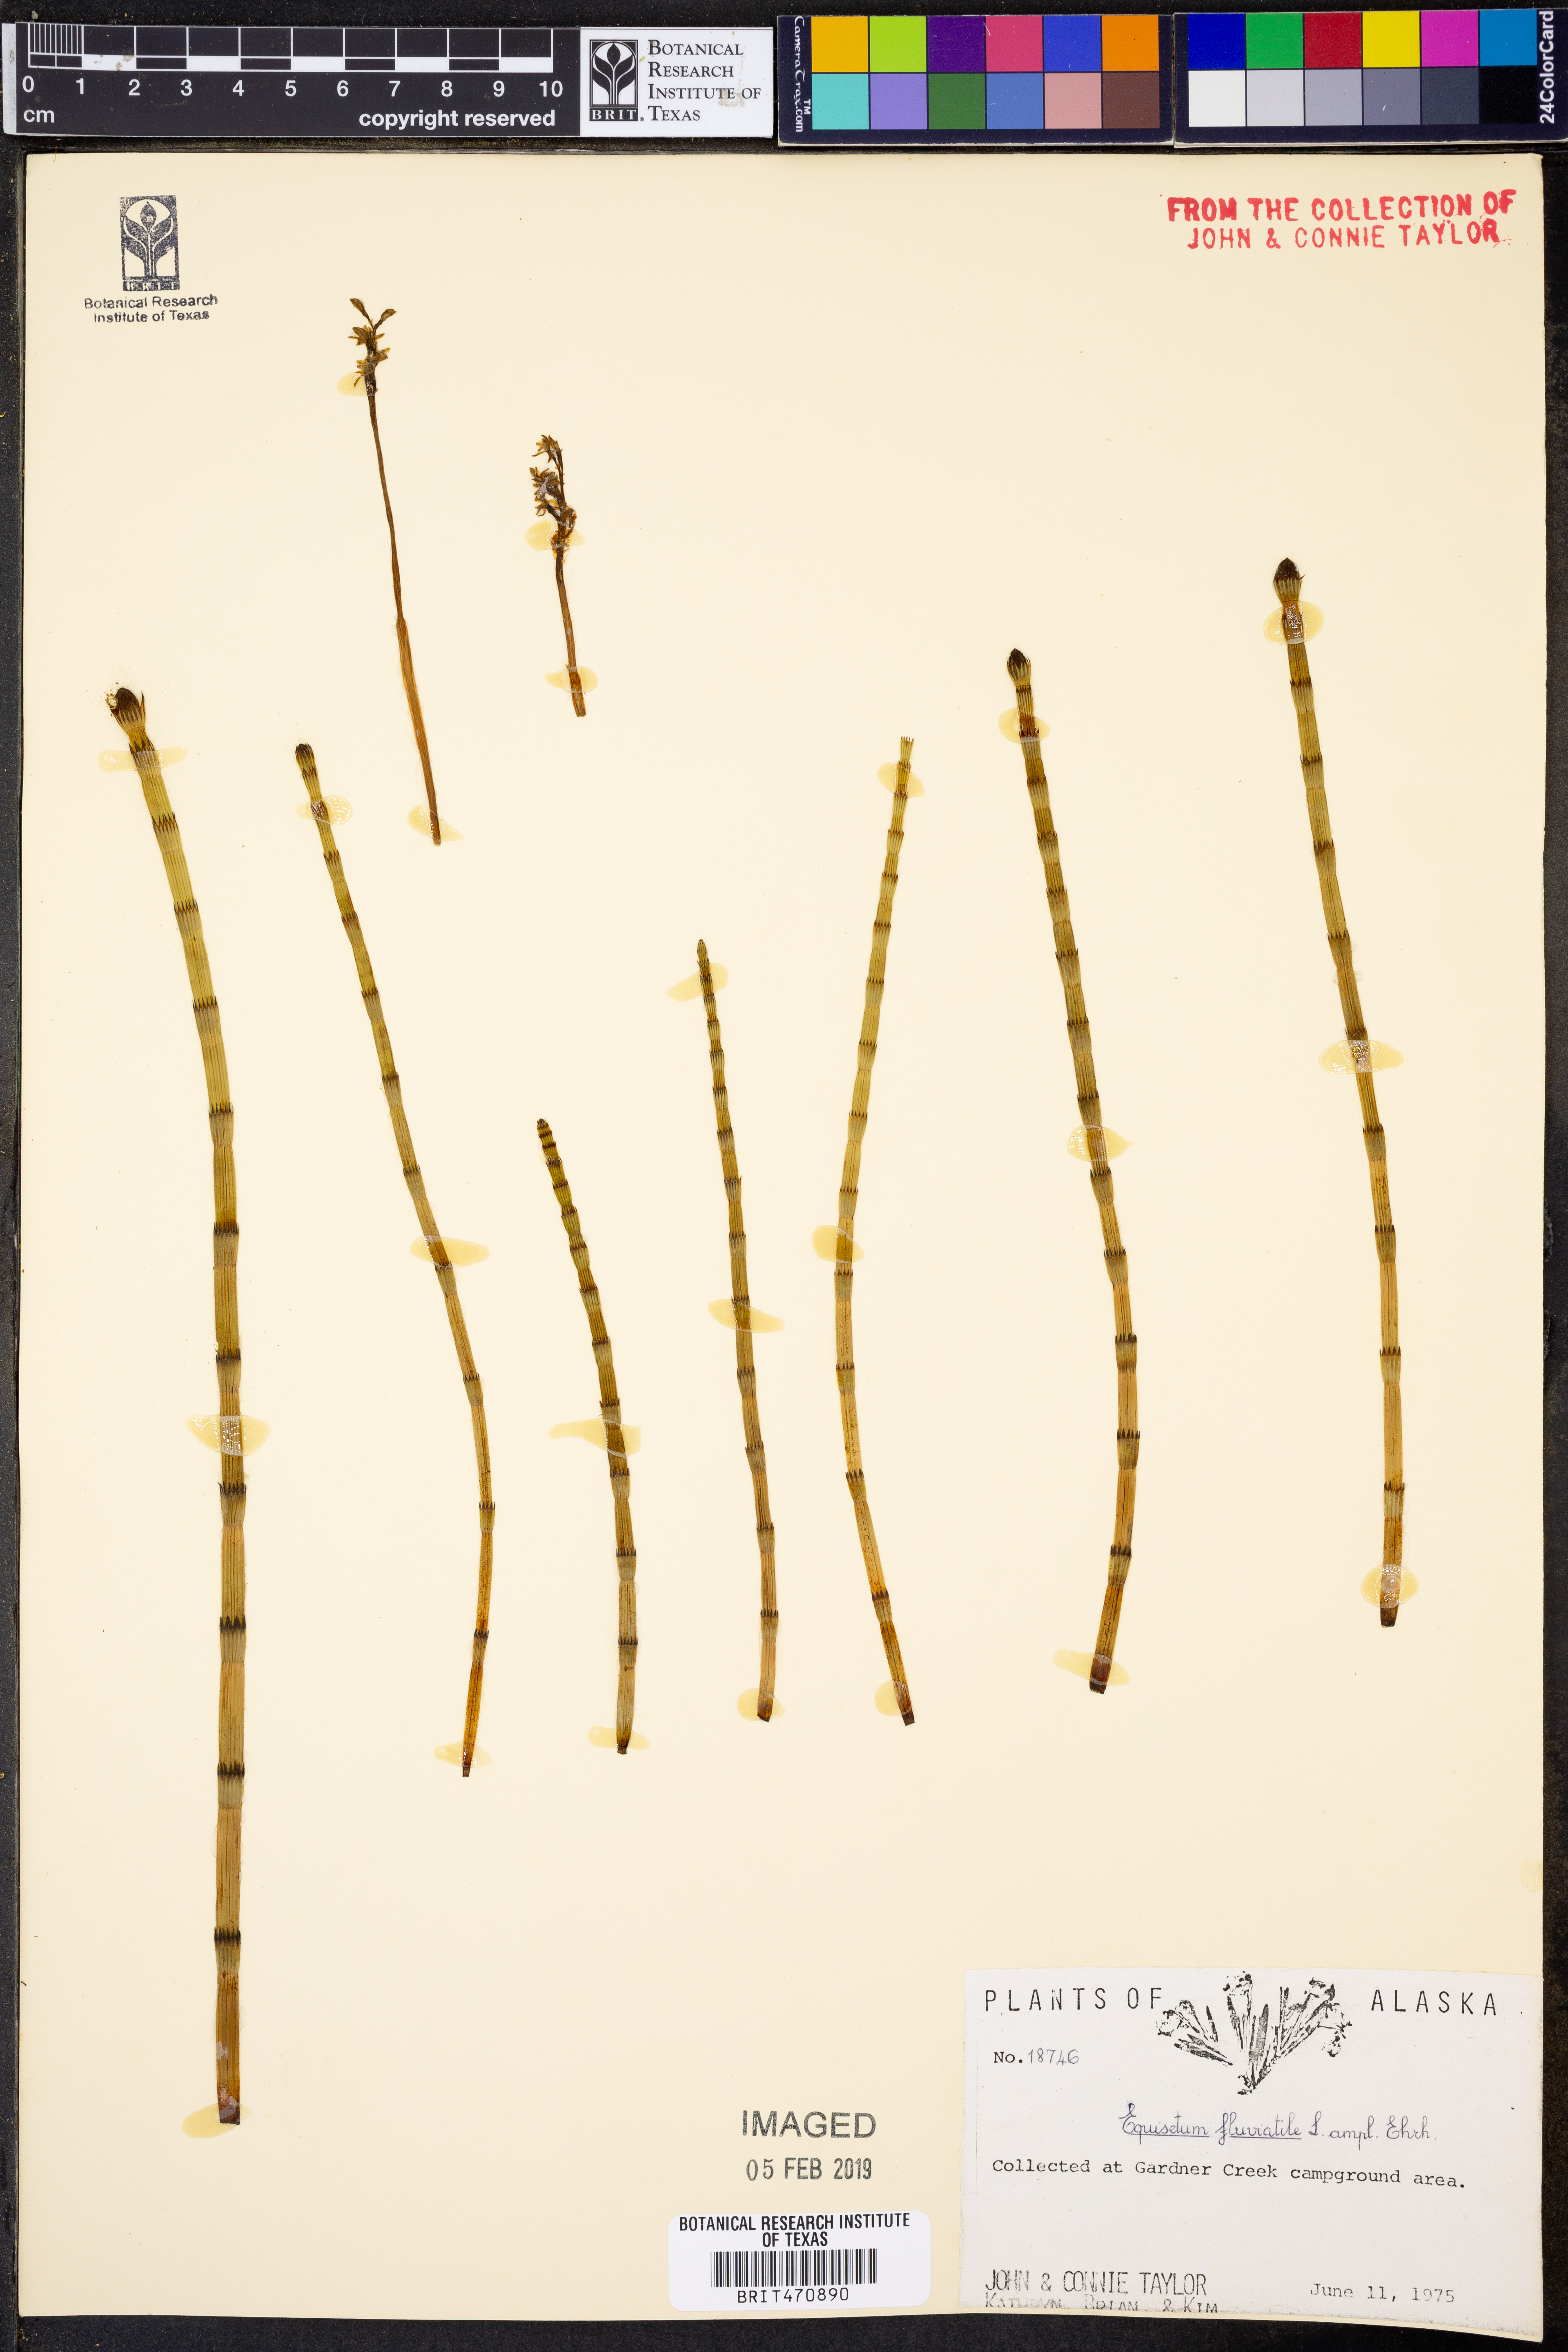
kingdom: Plantae
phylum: Tracheophyta
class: Polypodiopsida
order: Equisetales
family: Equisetaceae
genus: Equisetum
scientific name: Equisetum fluviatile
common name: Water horsetail
